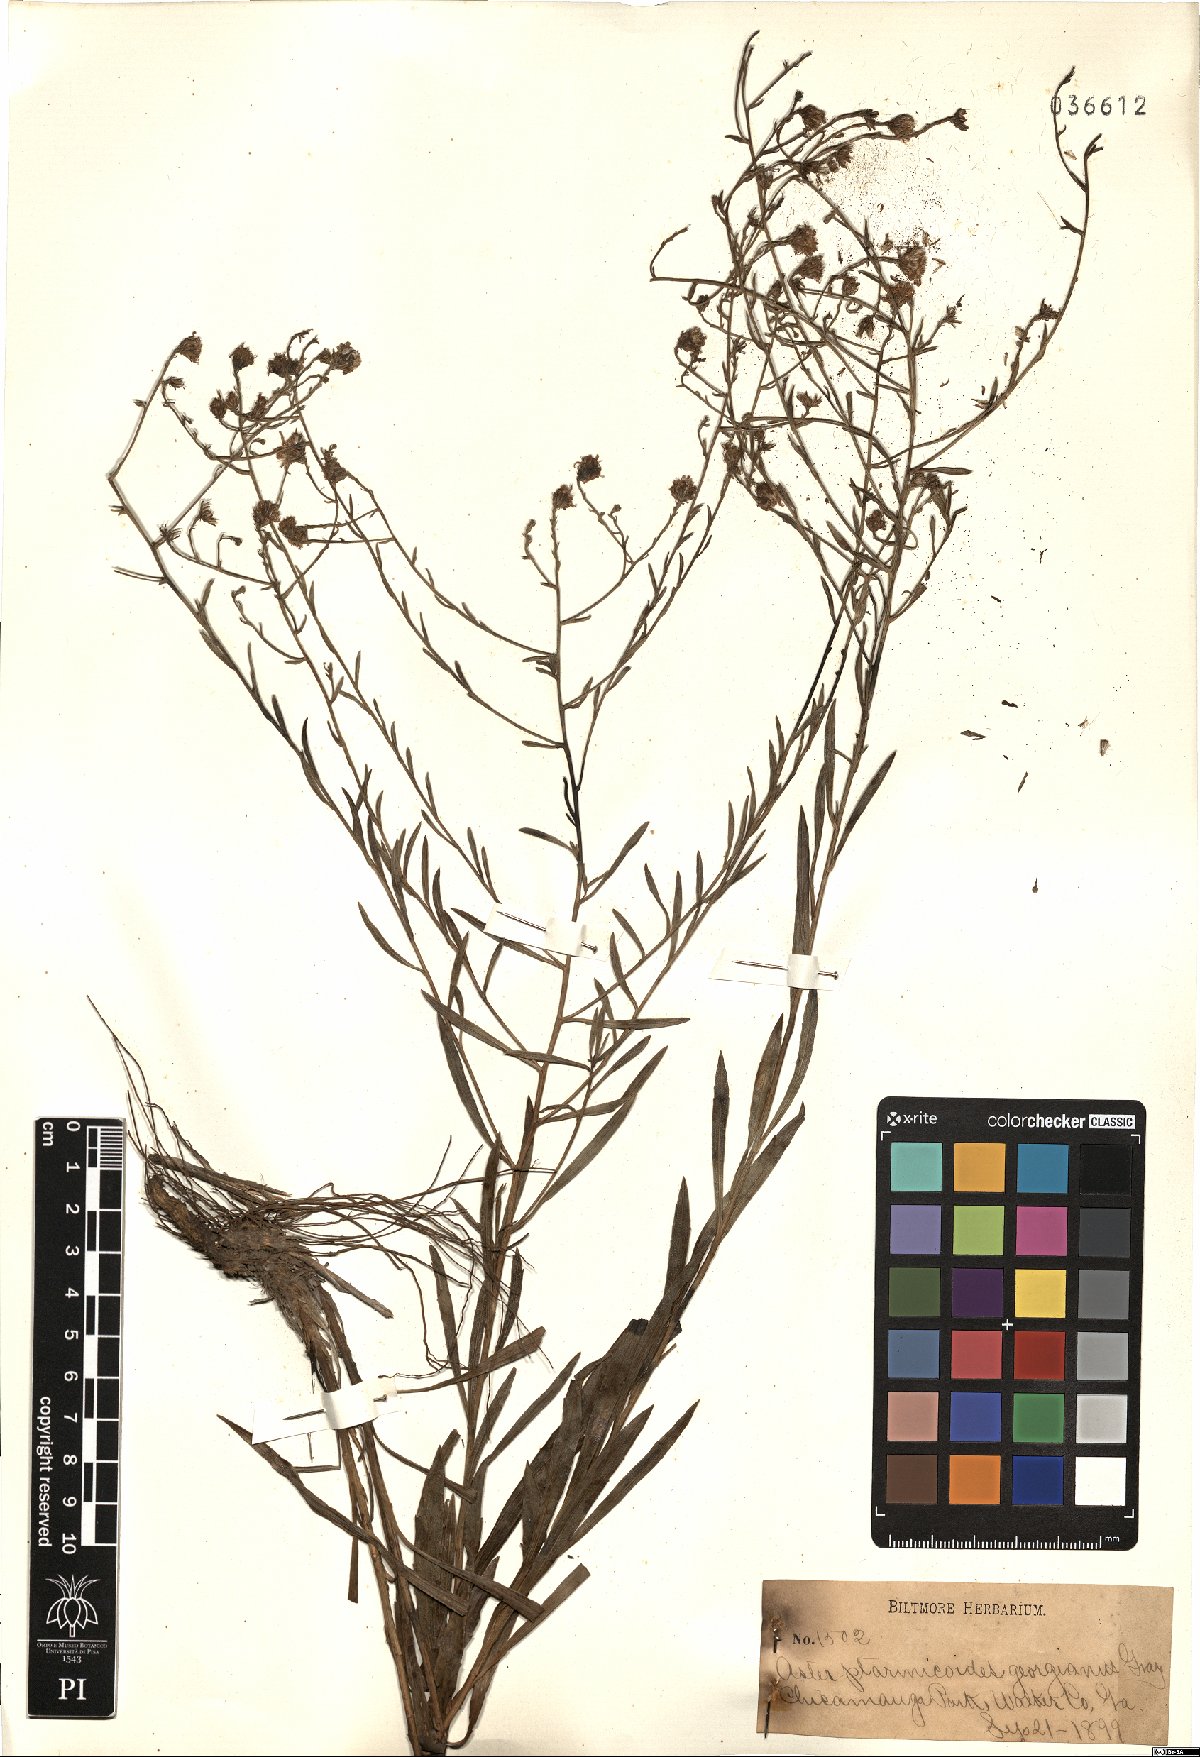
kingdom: Plantae
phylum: Tracheophyta
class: Magnoliopsida
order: Asterales
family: Asteraceae
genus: Solidago
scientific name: Solidago ptarmicoides
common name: White flat-top goldenrod
